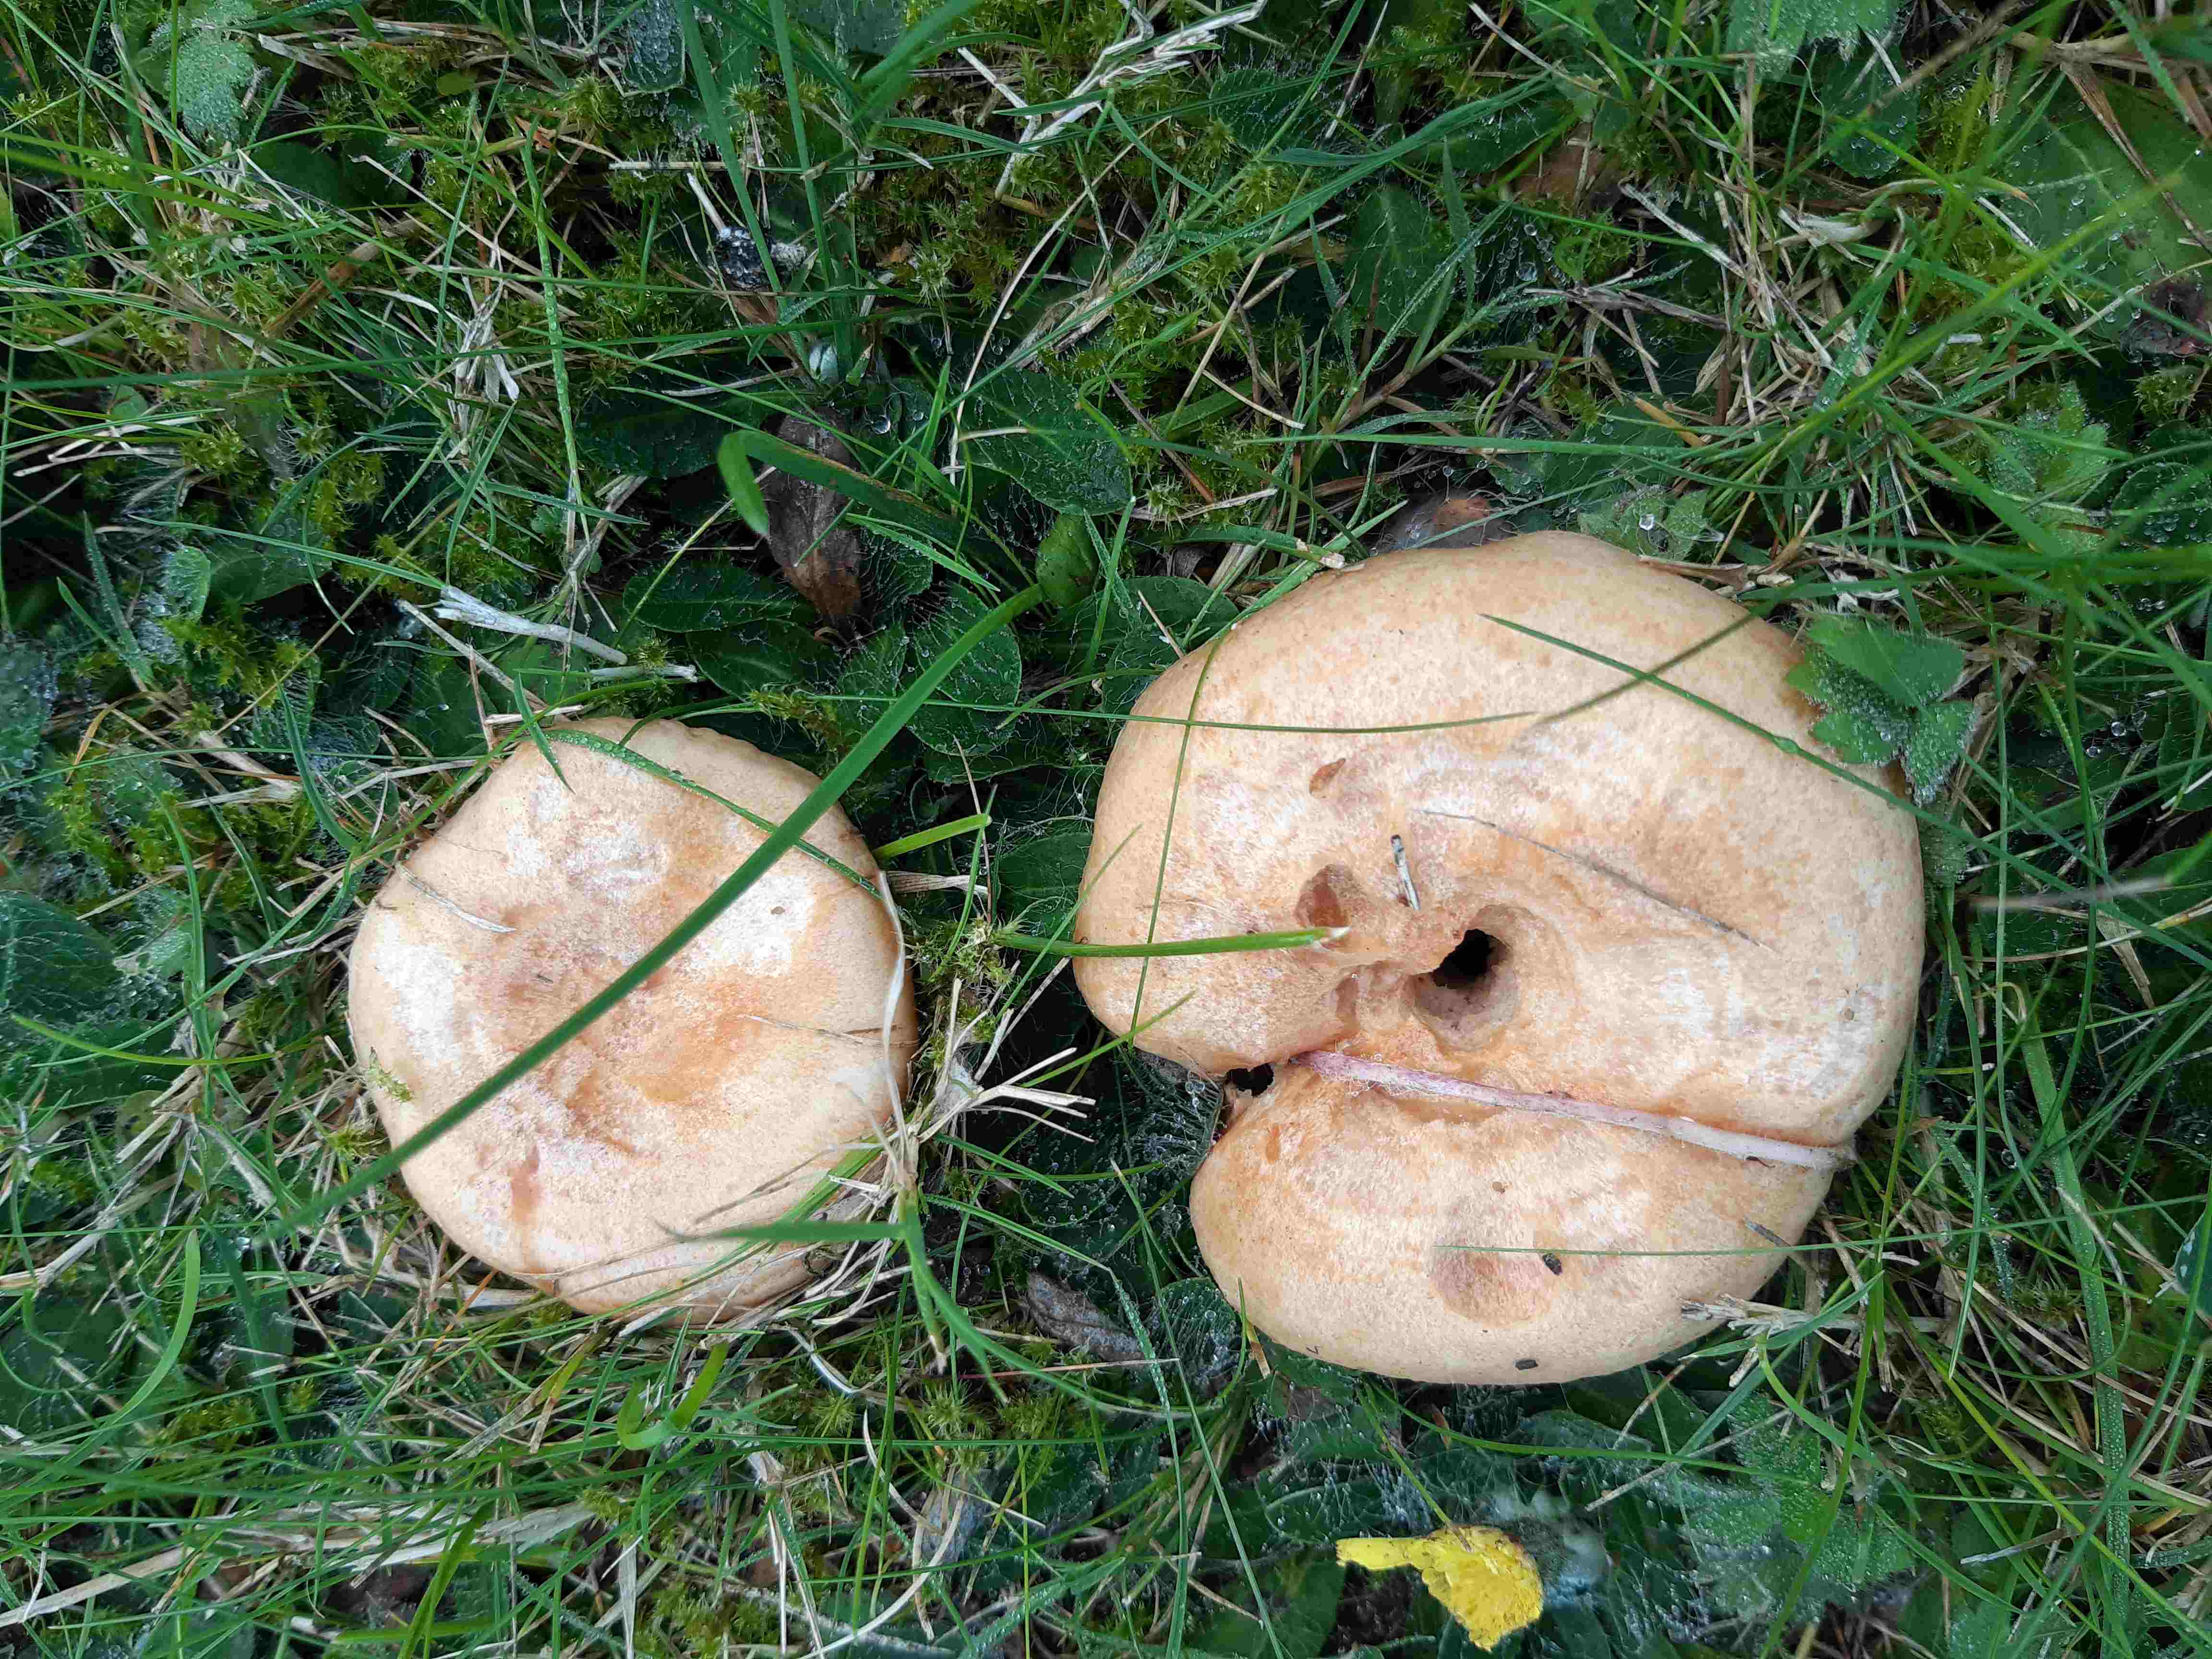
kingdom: Fungi
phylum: Basidiomycota
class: Agaricomycetes
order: Russulales
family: Russulaceae
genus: Lactarius
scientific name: Lactarius deliciosus
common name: velsmagende mælkehat
